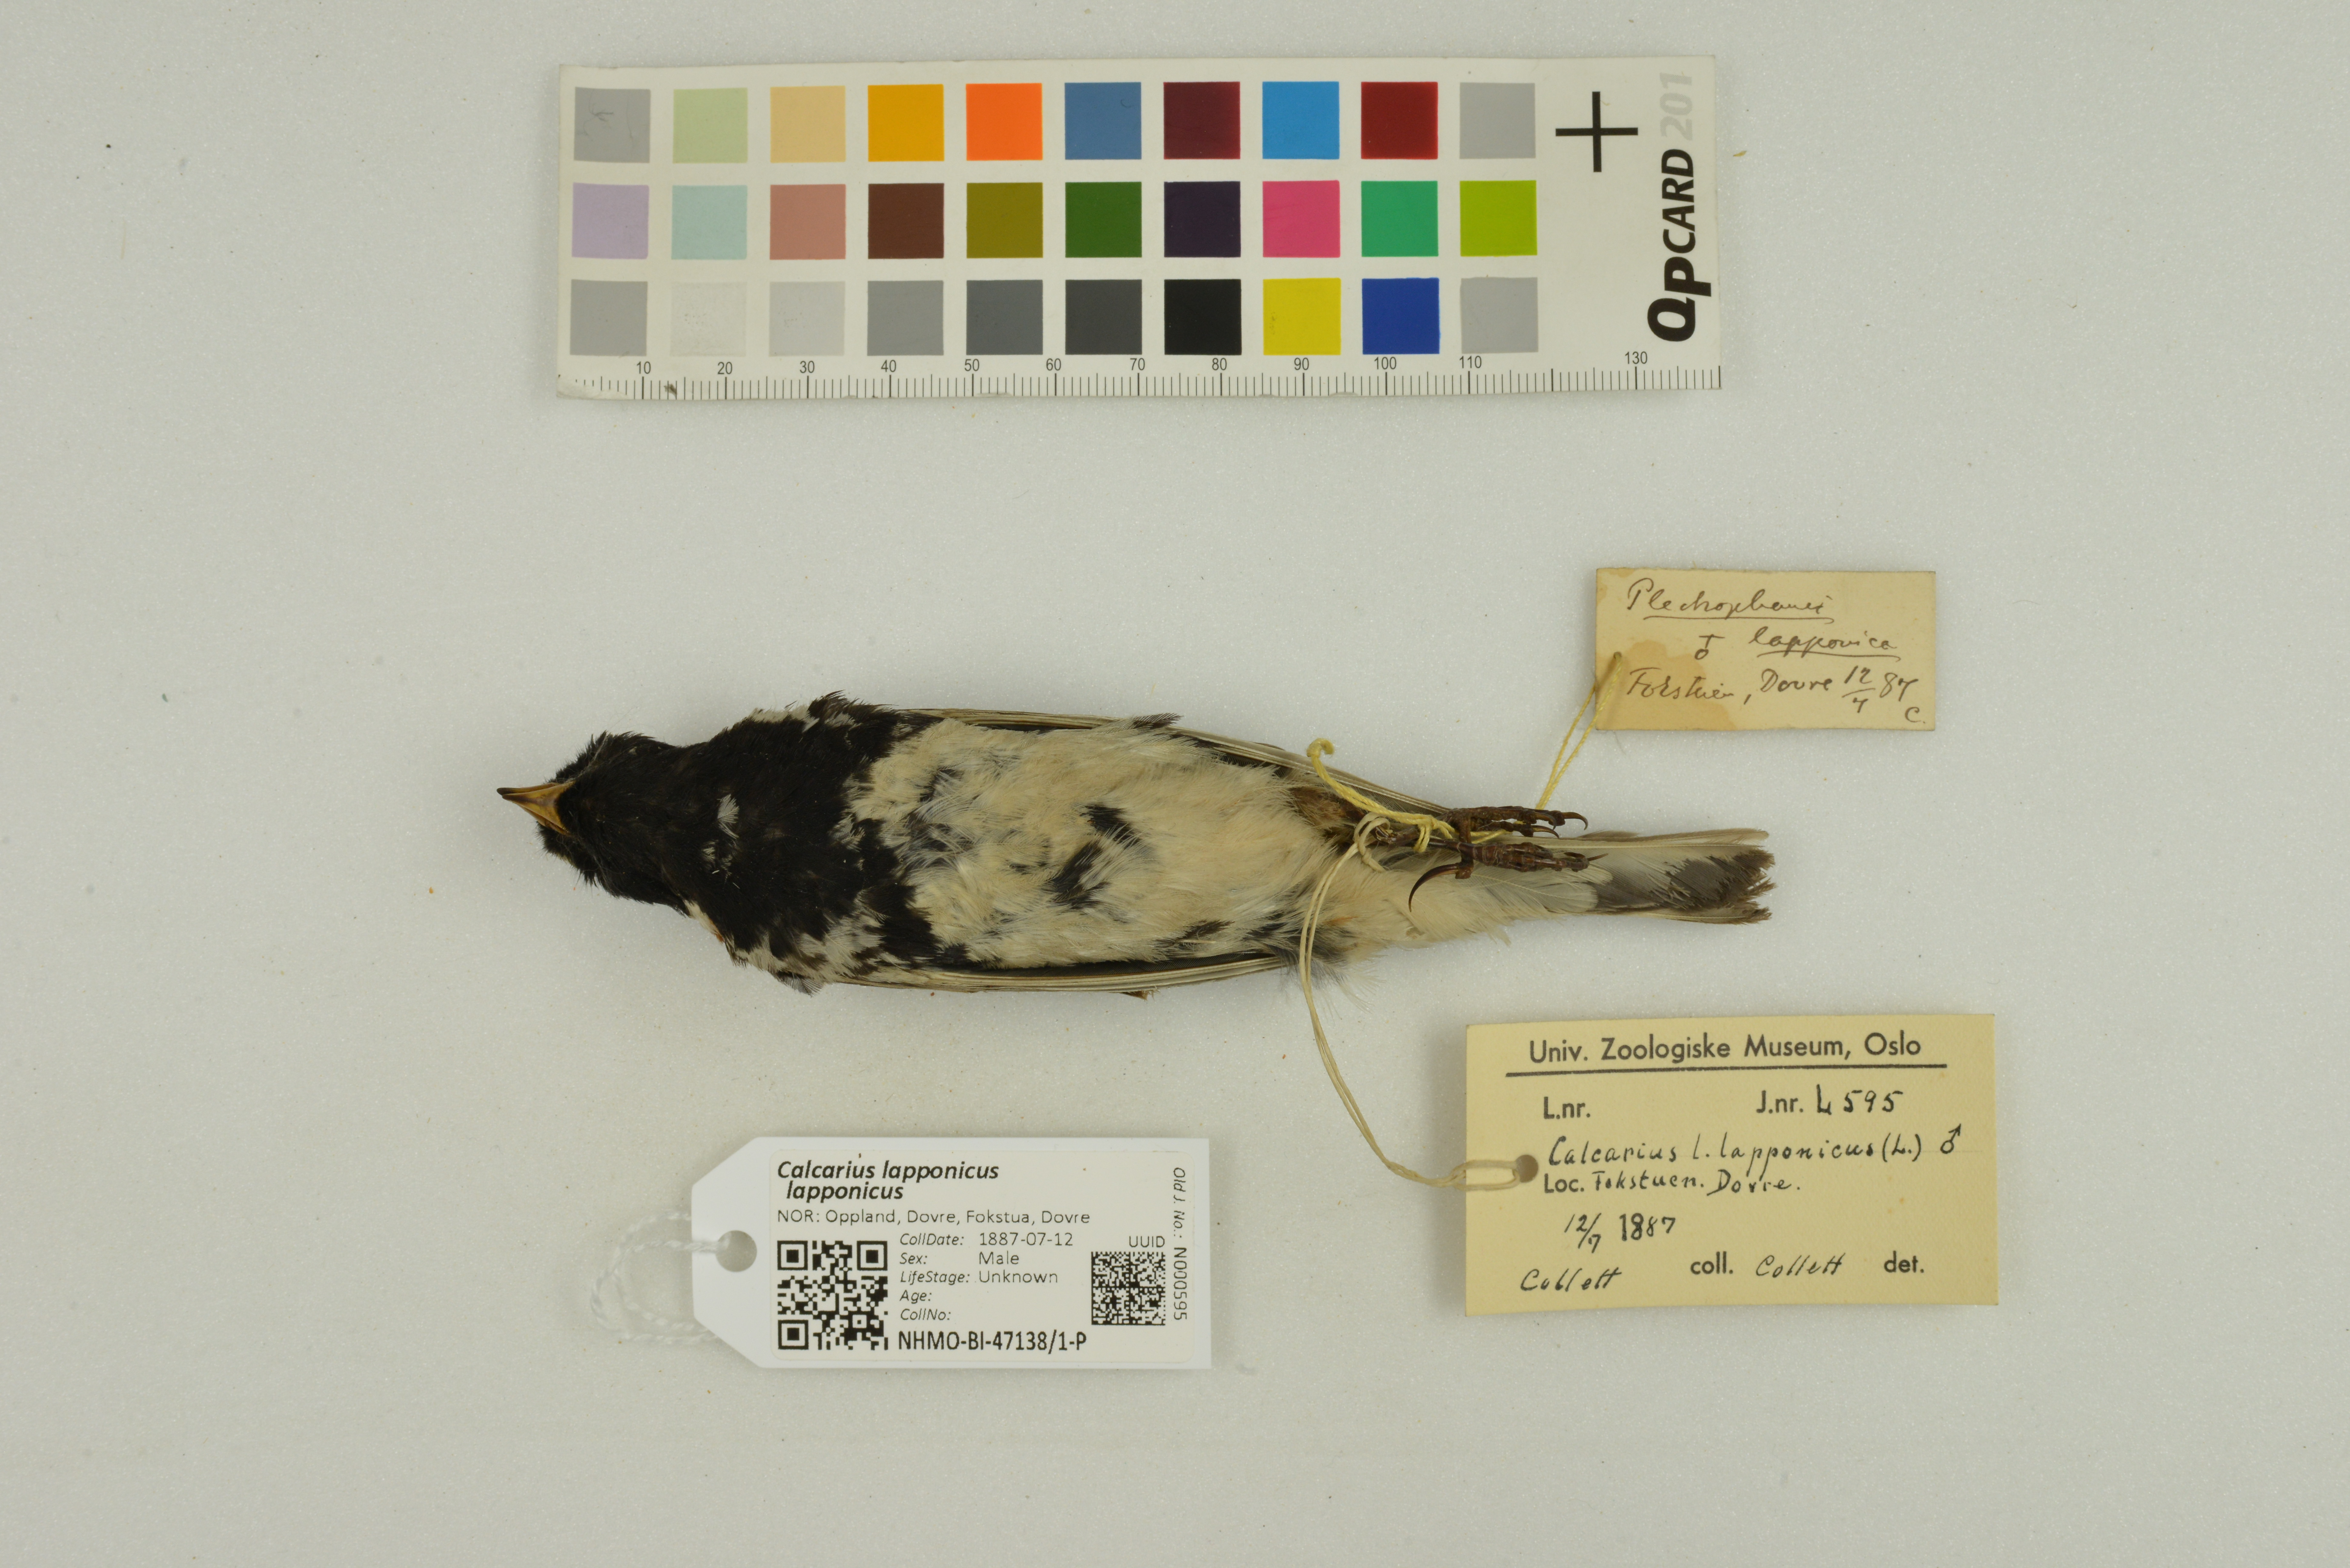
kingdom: Animalia
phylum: Chordata
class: Aves
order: Passeriformes
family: Calcariidae
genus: Calcarius
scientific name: Calcarius lapponicus
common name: Lapland longspur
